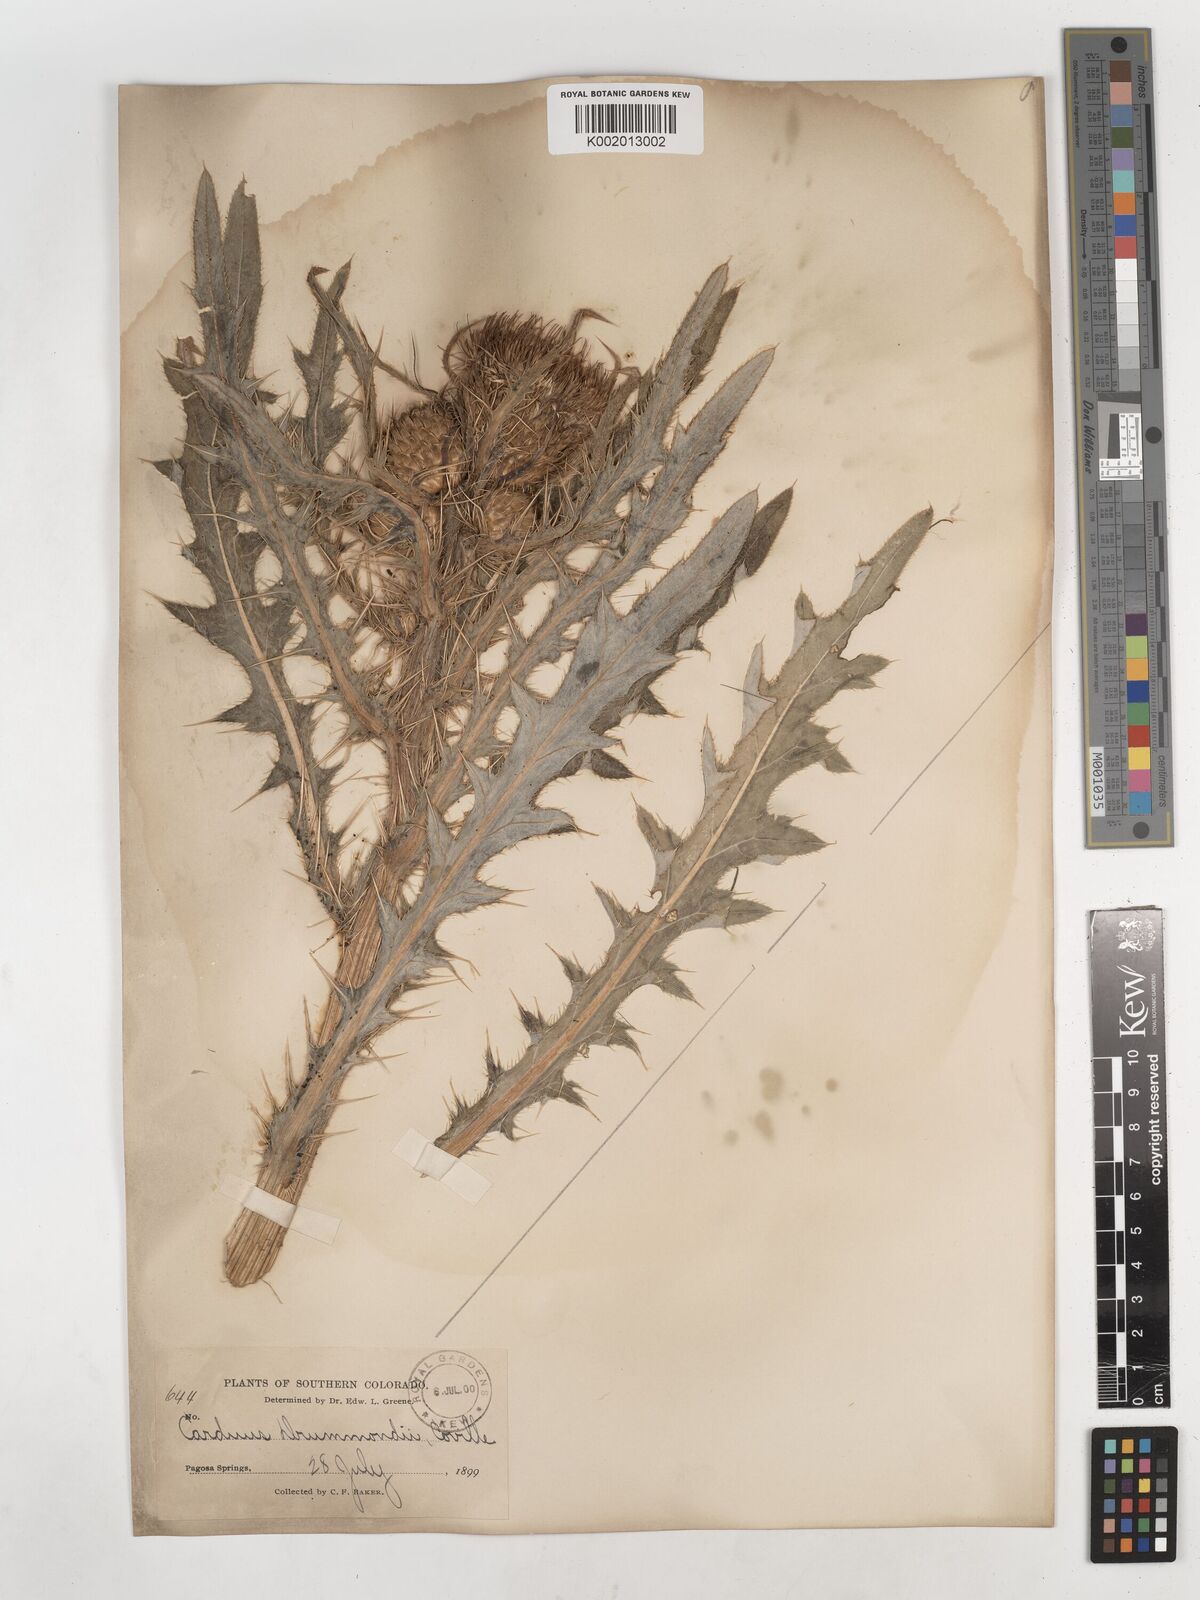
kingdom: Plantae
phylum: Tracheophyta
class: Magnoliopsida
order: Asterales
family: Asteraceae
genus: Cirsium
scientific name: Cirsium drummondii
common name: Drummond's thistle
